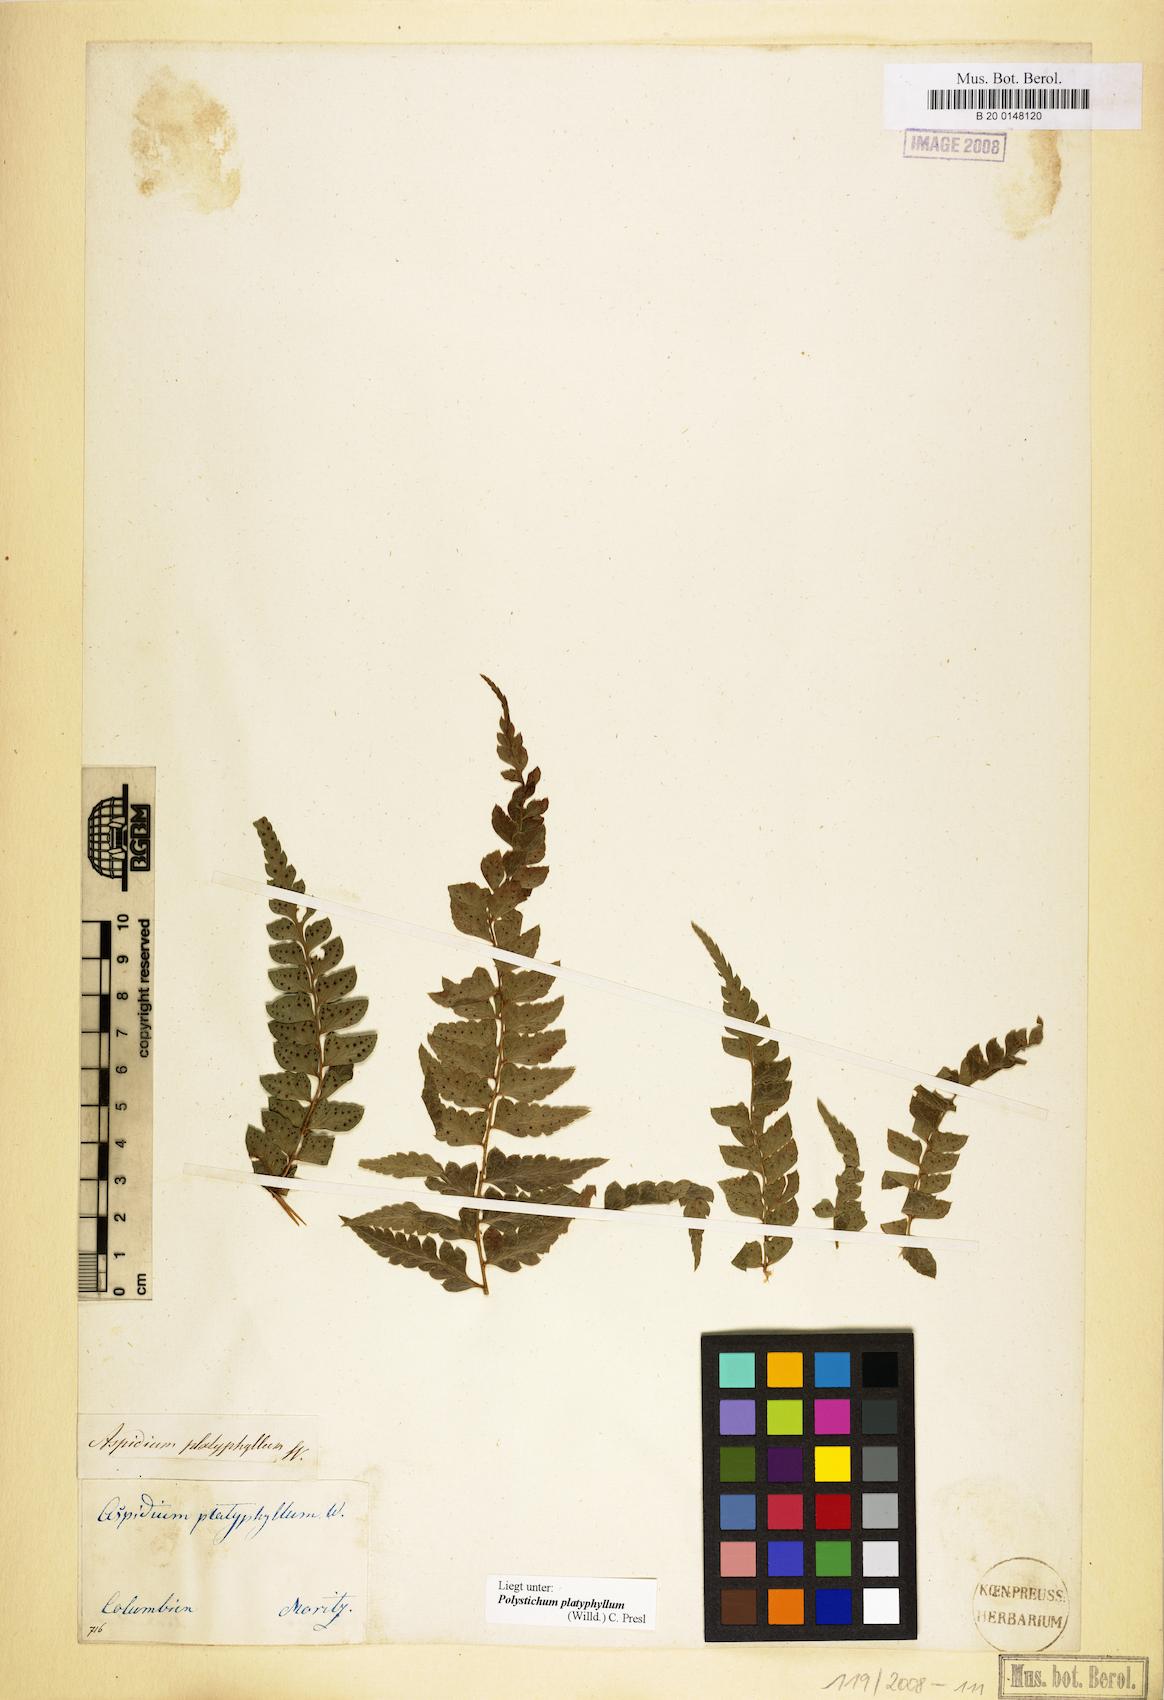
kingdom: Plantae
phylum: Tracheophyta
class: Polypodiopsida
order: Polypodiales
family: Dryopteridaceae
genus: Polystichum
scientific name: Polystichum platyphyllum
